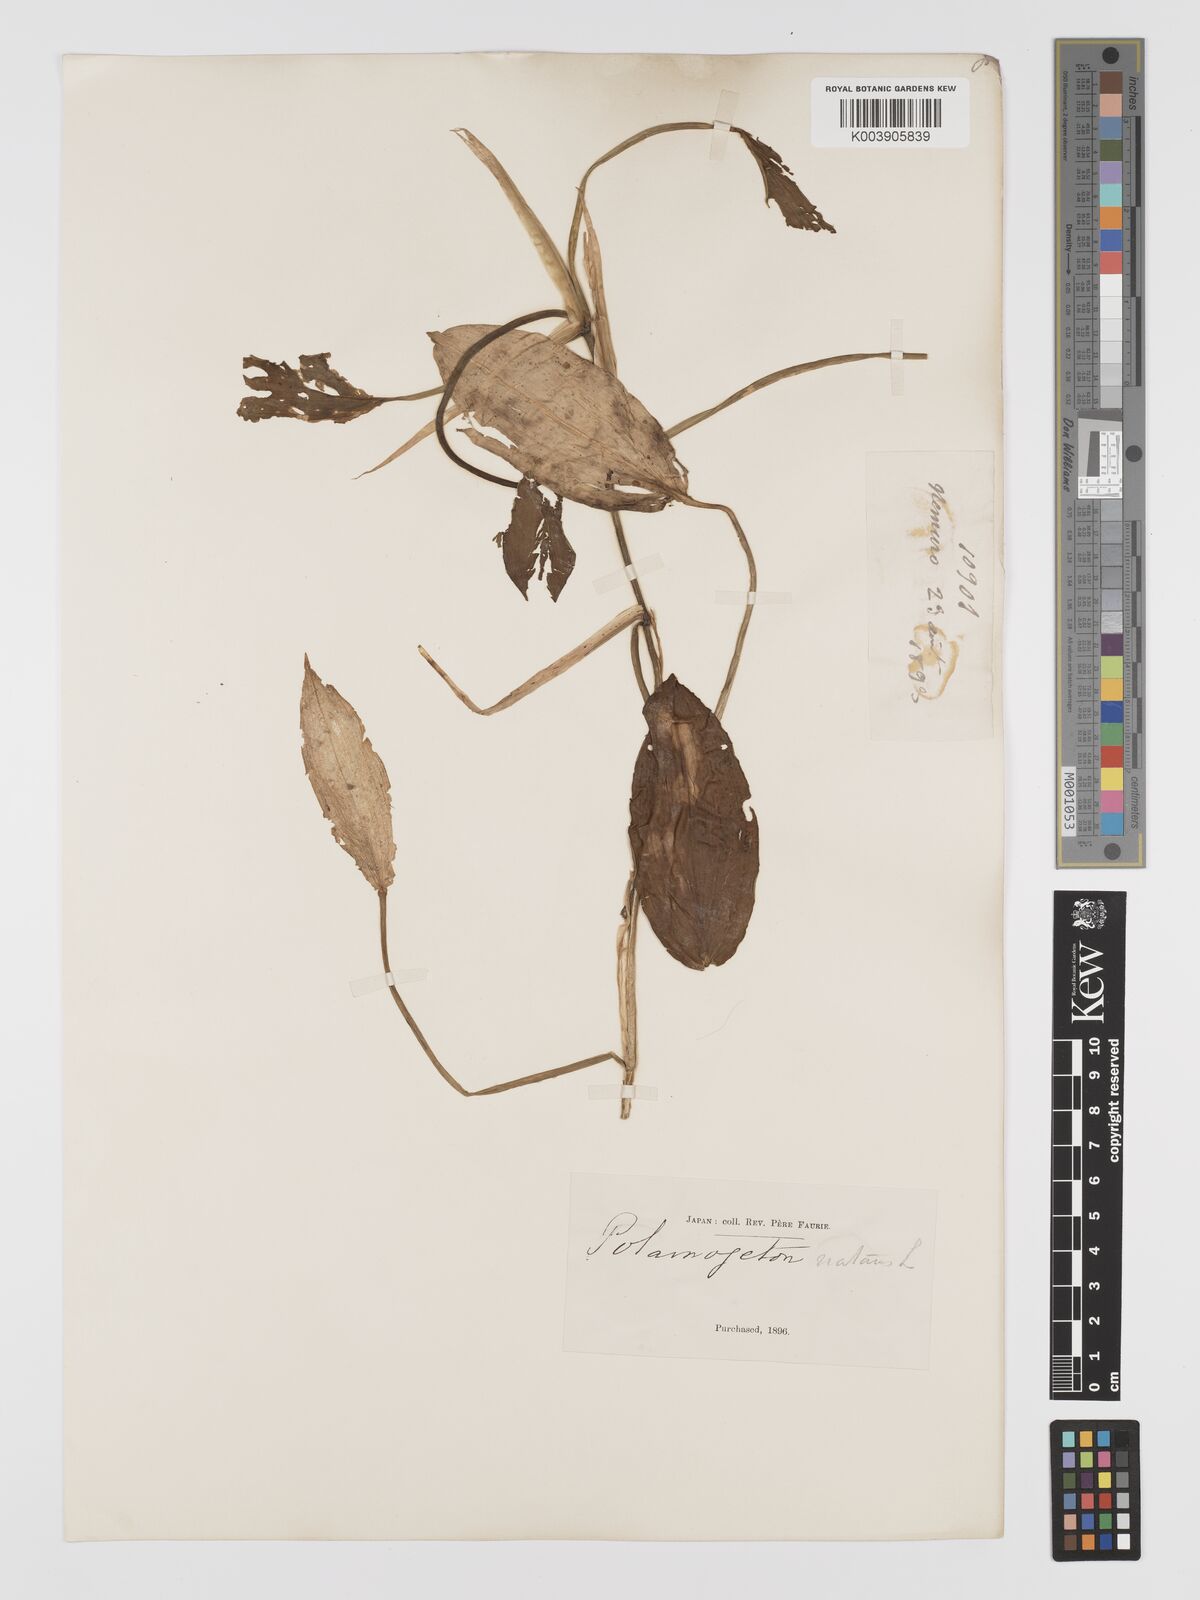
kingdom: Plantae
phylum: Tracheophyta
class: Liliopsida
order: Alismatales
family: Potamogetonaceae
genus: Potamogeton
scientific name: Potamogeton natans
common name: Broad-leaved pondweed
